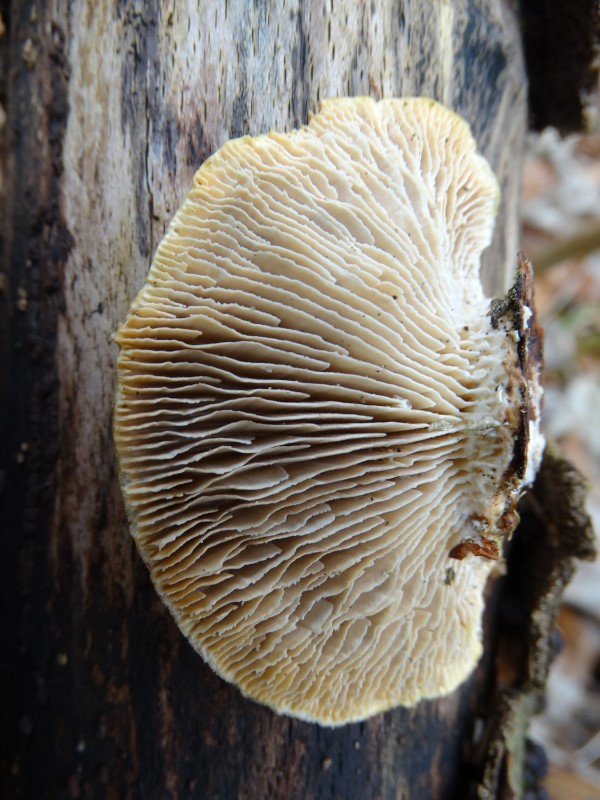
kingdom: Fungi
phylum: Basidiomycota
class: Agaricomycetes
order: Polyporales
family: Polyporaceae
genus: Lenzites
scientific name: Lenzites betulinus
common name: birke-læderporesvamp
